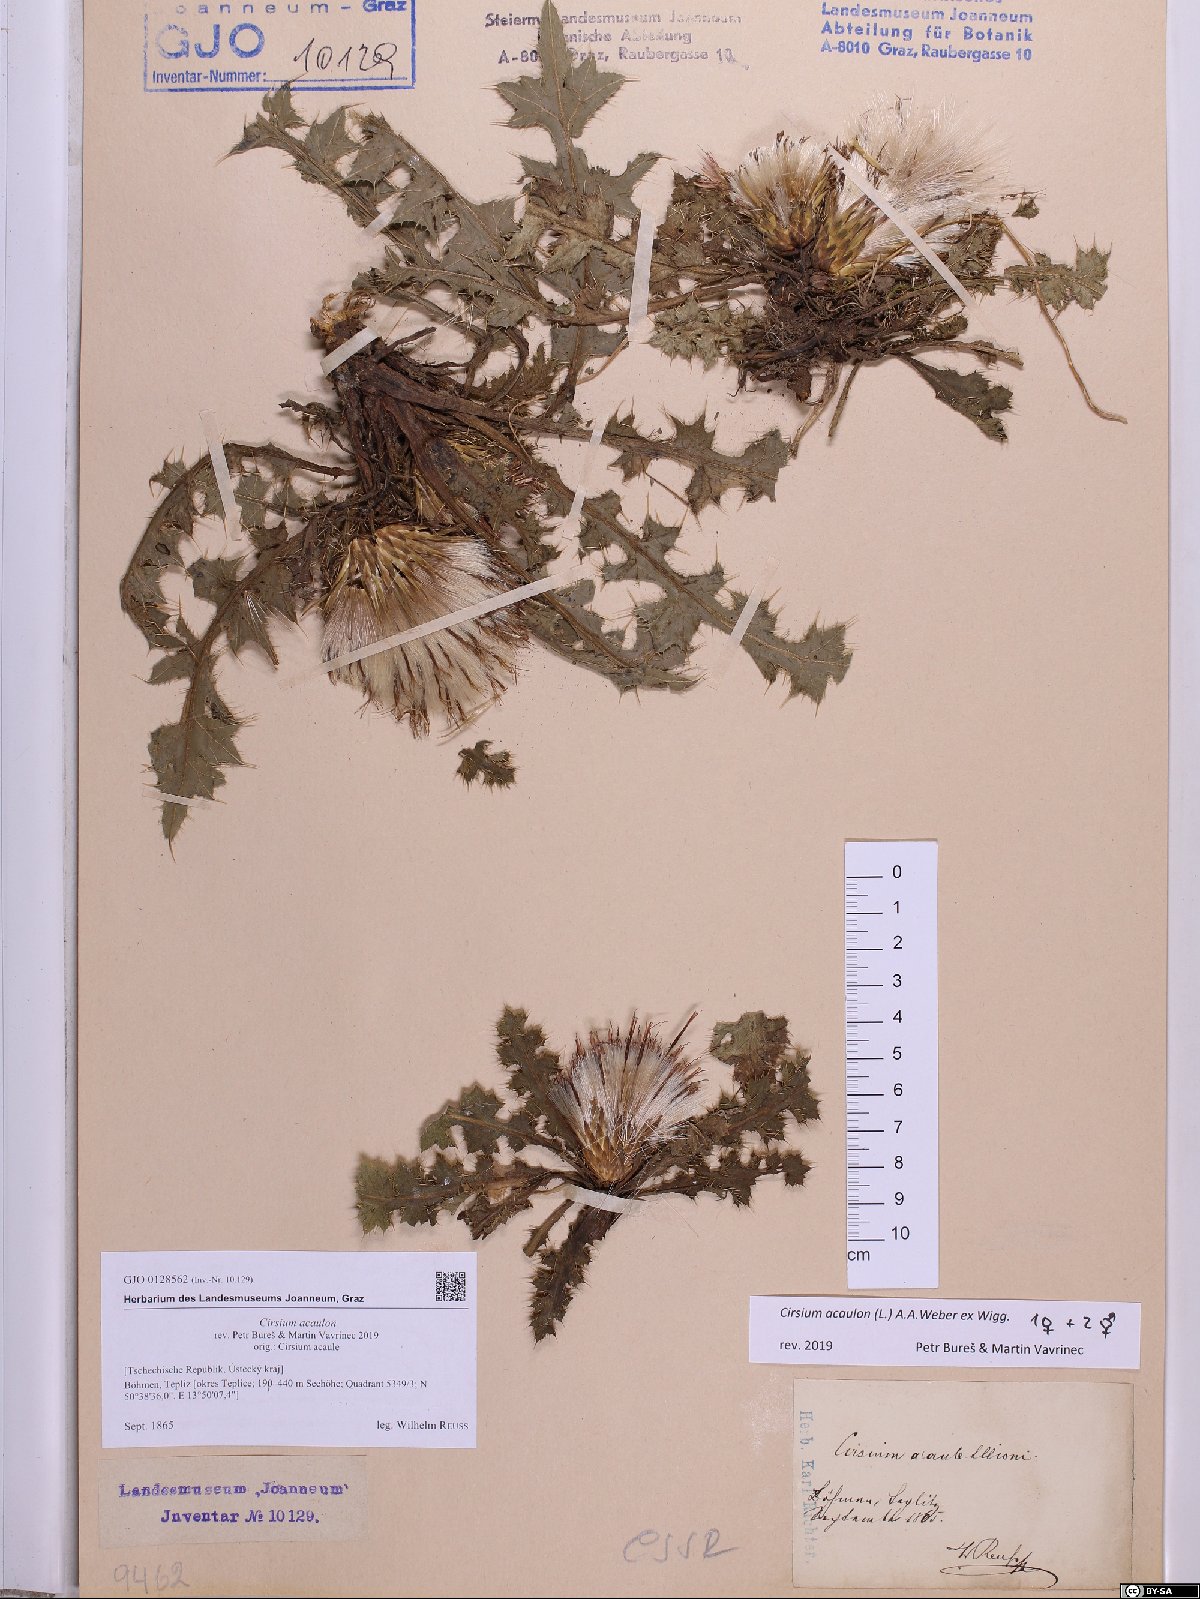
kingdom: Plantae
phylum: Tracheophyta
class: Magnoliopsida
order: Asterales
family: Asteraceae
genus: Cirsium
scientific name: Cirsium acaulon
